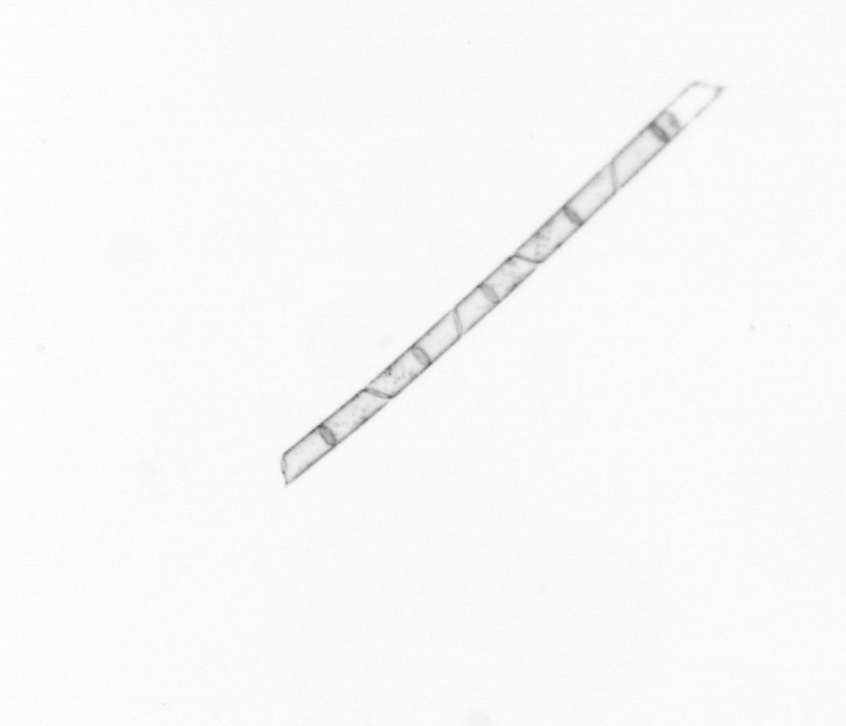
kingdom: Chromista
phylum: Ochrophyta
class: Bacillariophyceae
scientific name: Bacillariophyceae
